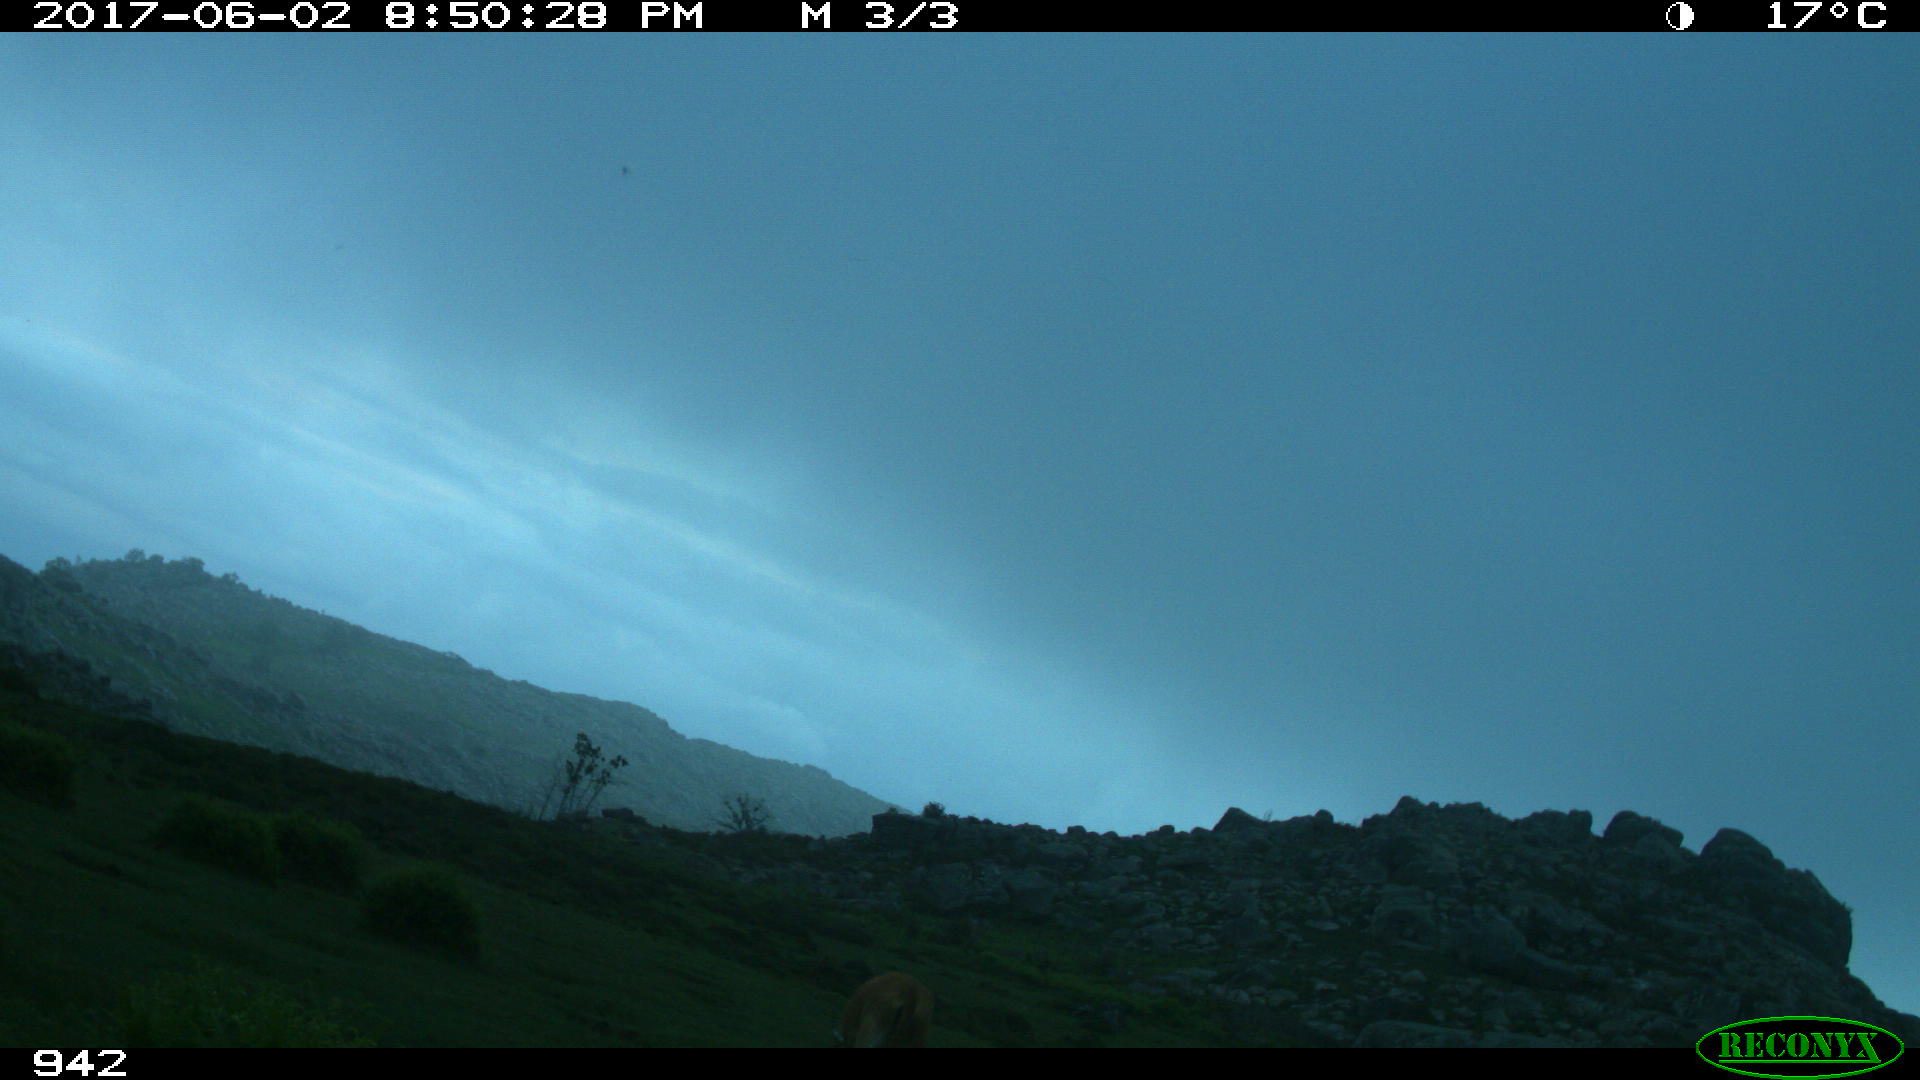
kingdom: Animalia
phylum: Chordata
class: Mammalia
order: Artiodactyla
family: Bovidae
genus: Bos
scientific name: Bos taurus
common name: Domesticated cattle
